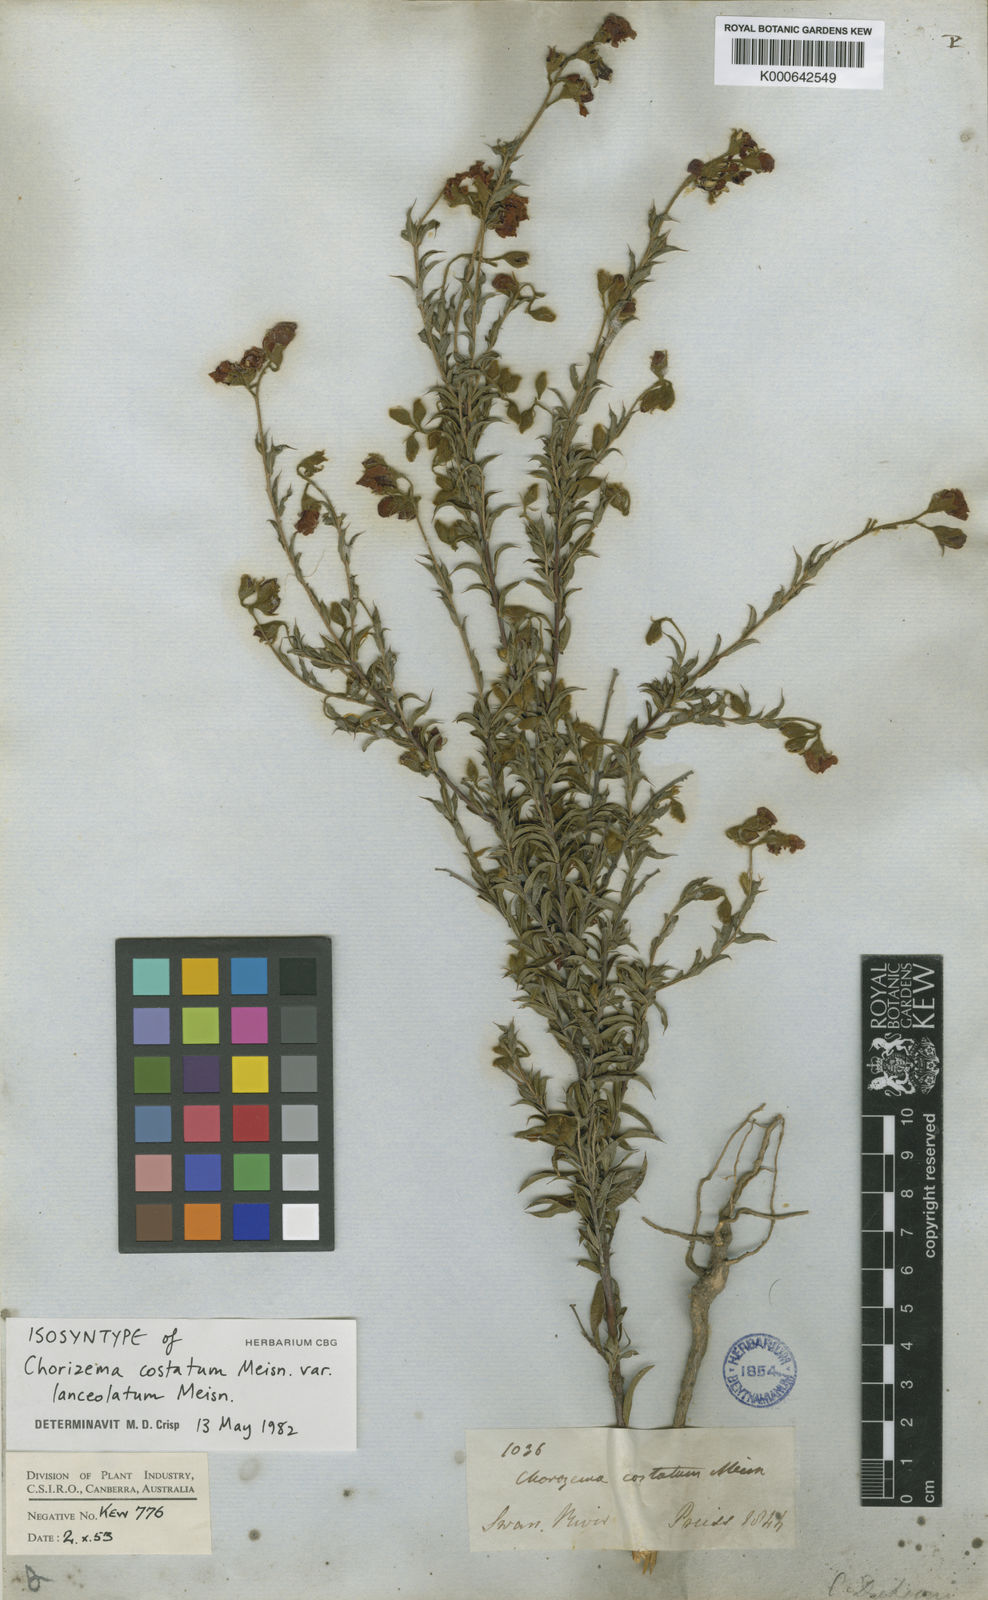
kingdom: Plantae
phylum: Tracheophyta
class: Magnoliopsida
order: Fabales
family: Fabaceae
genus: Chorizema
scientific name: Chorizema dicksonii
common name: Yellow-eyed flame-pea
